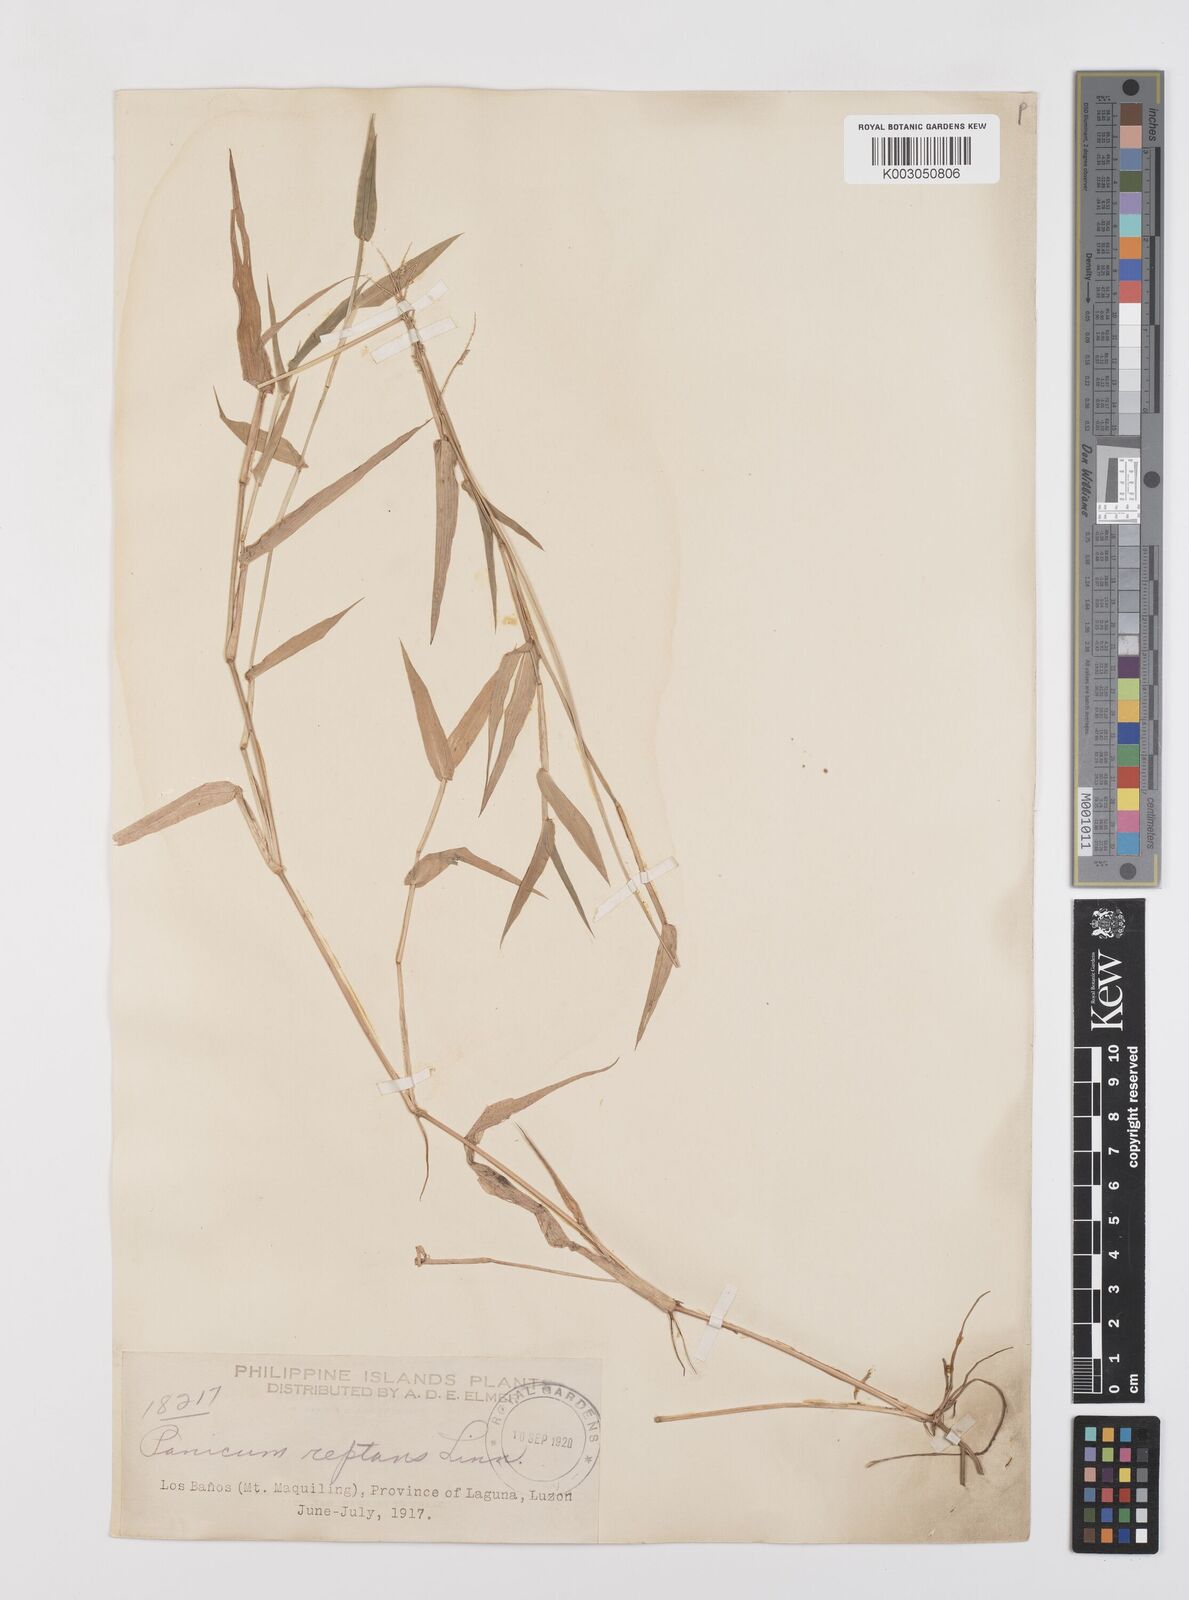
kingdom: Plantae
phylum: Tracheophyta
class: Liliopsida
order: Poales
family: Poaceae
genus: Urochloa
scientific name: Urochloa reptans
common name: Sprawling signalgrass
